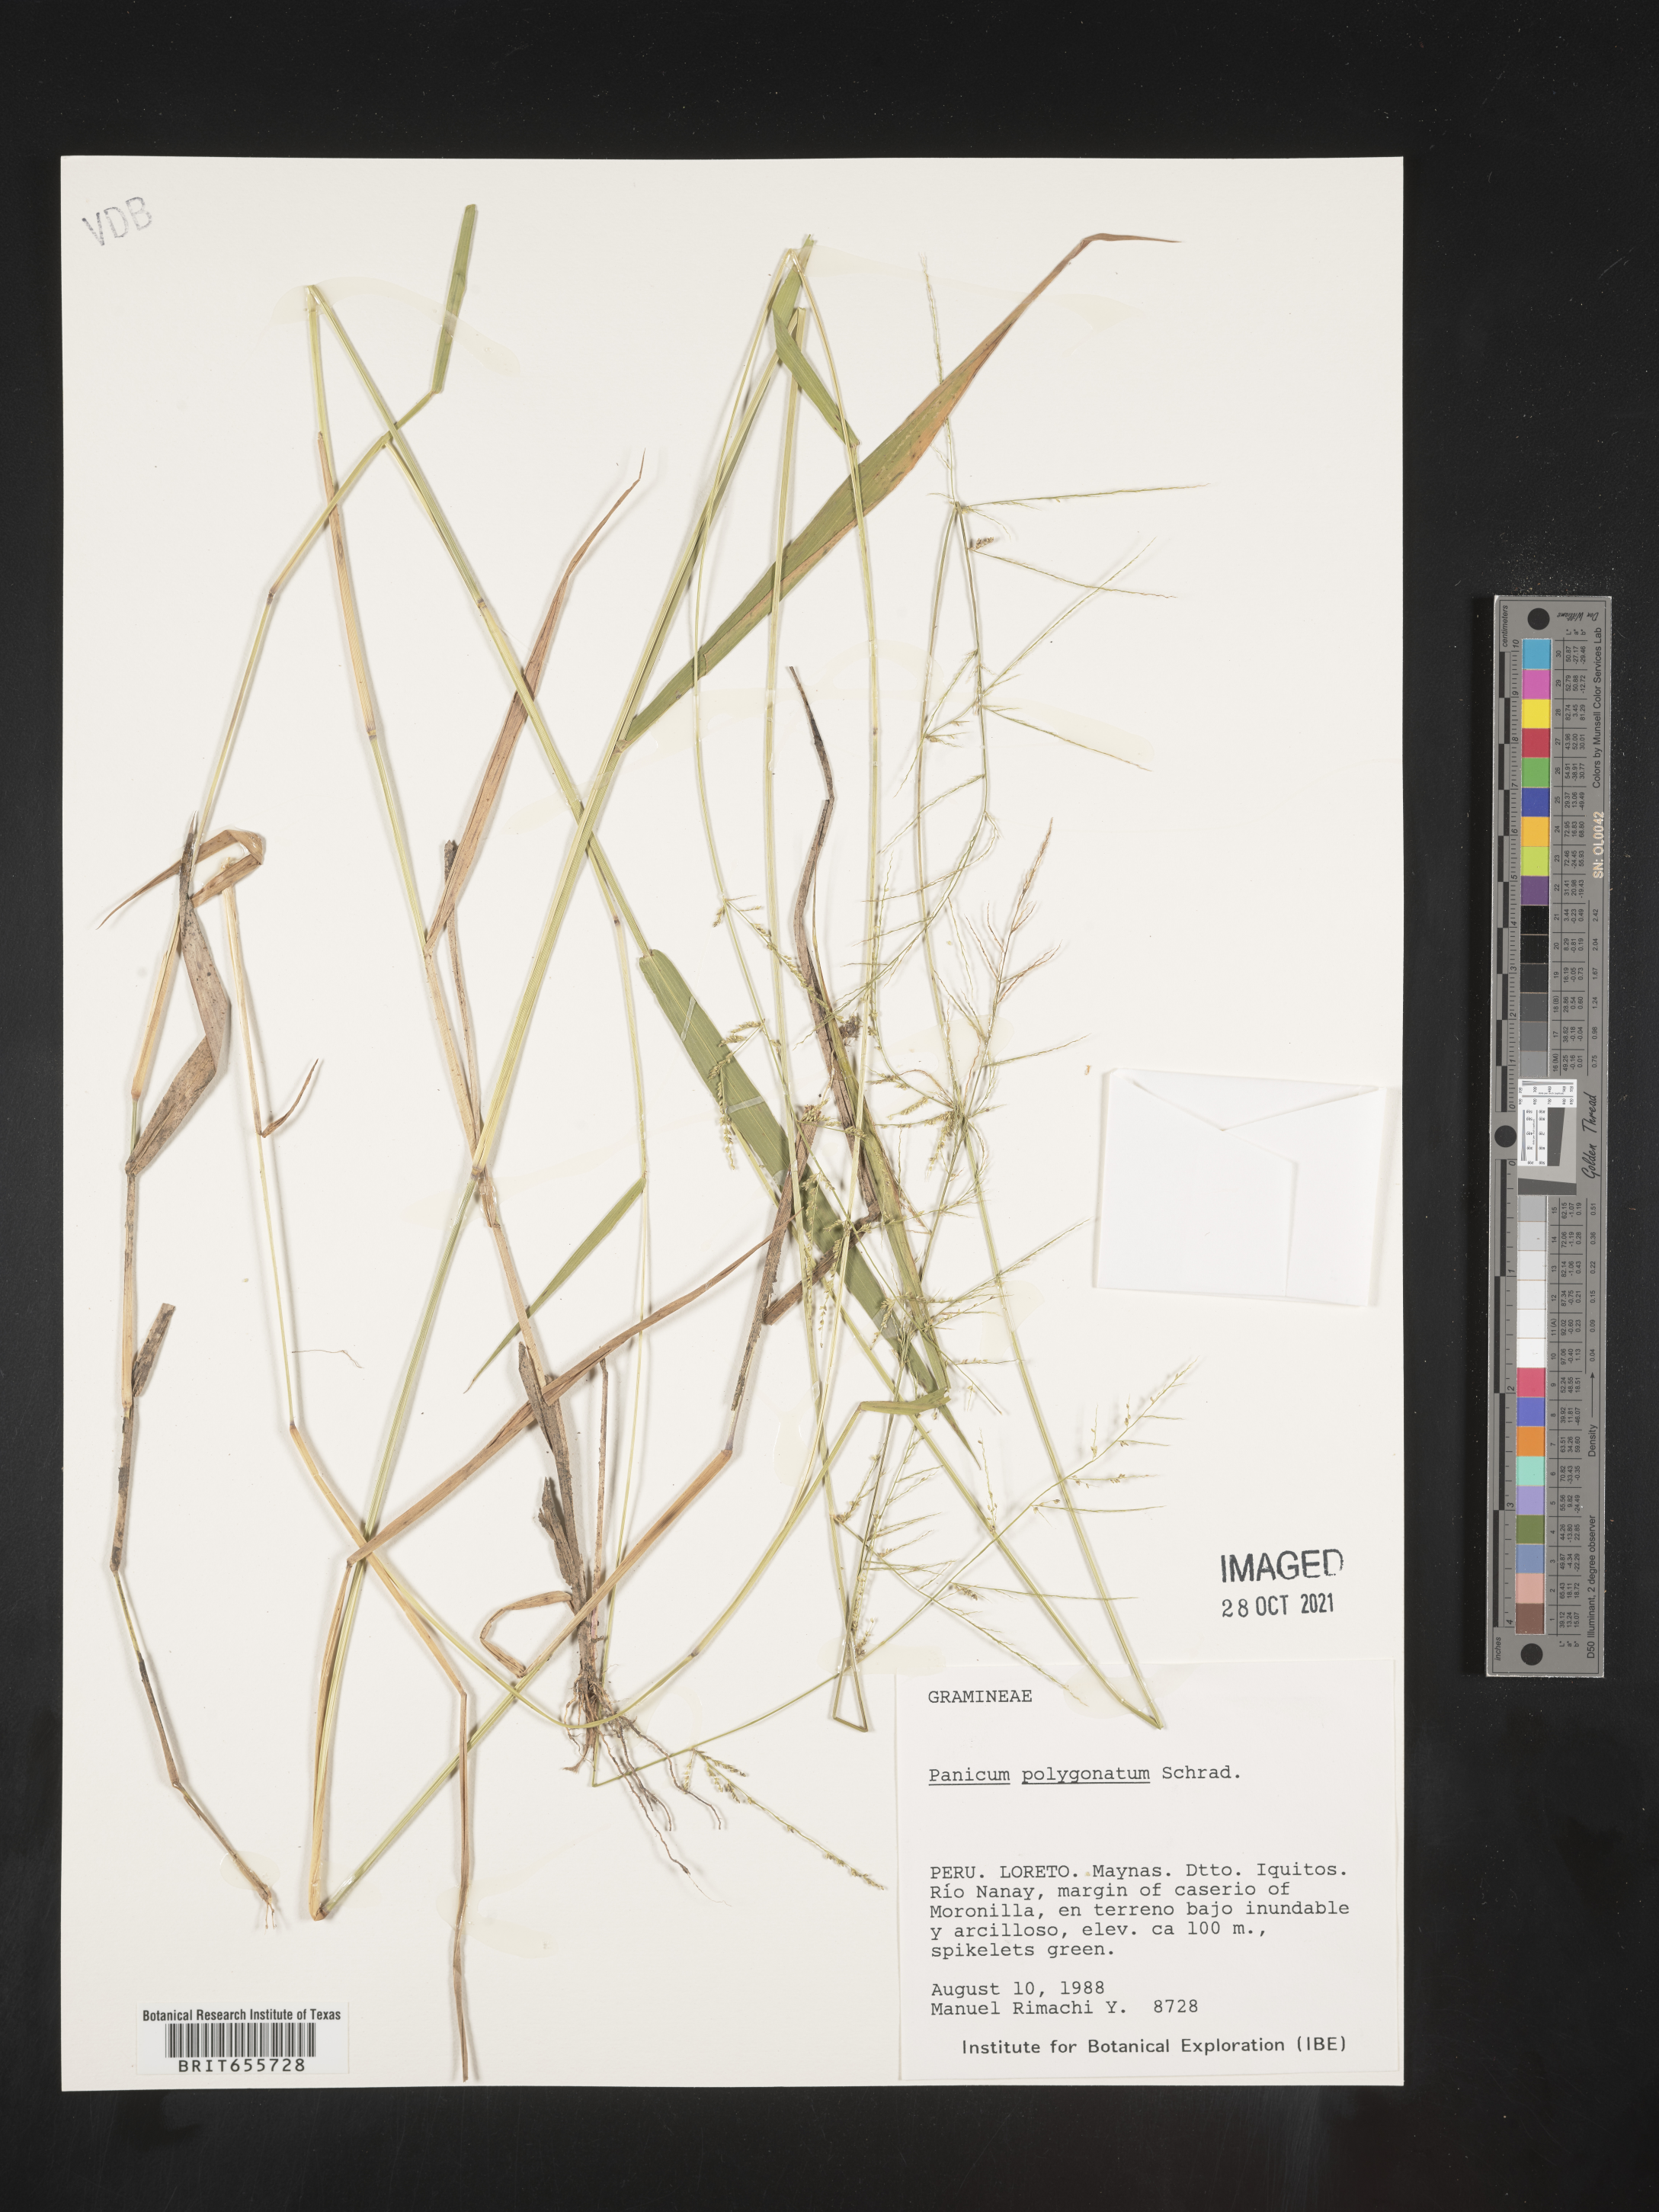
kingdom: Plantae
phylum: Tracheophyta
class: Liliopsida
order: Poales
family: Poaceae
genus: Panicum
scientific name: Panicum
